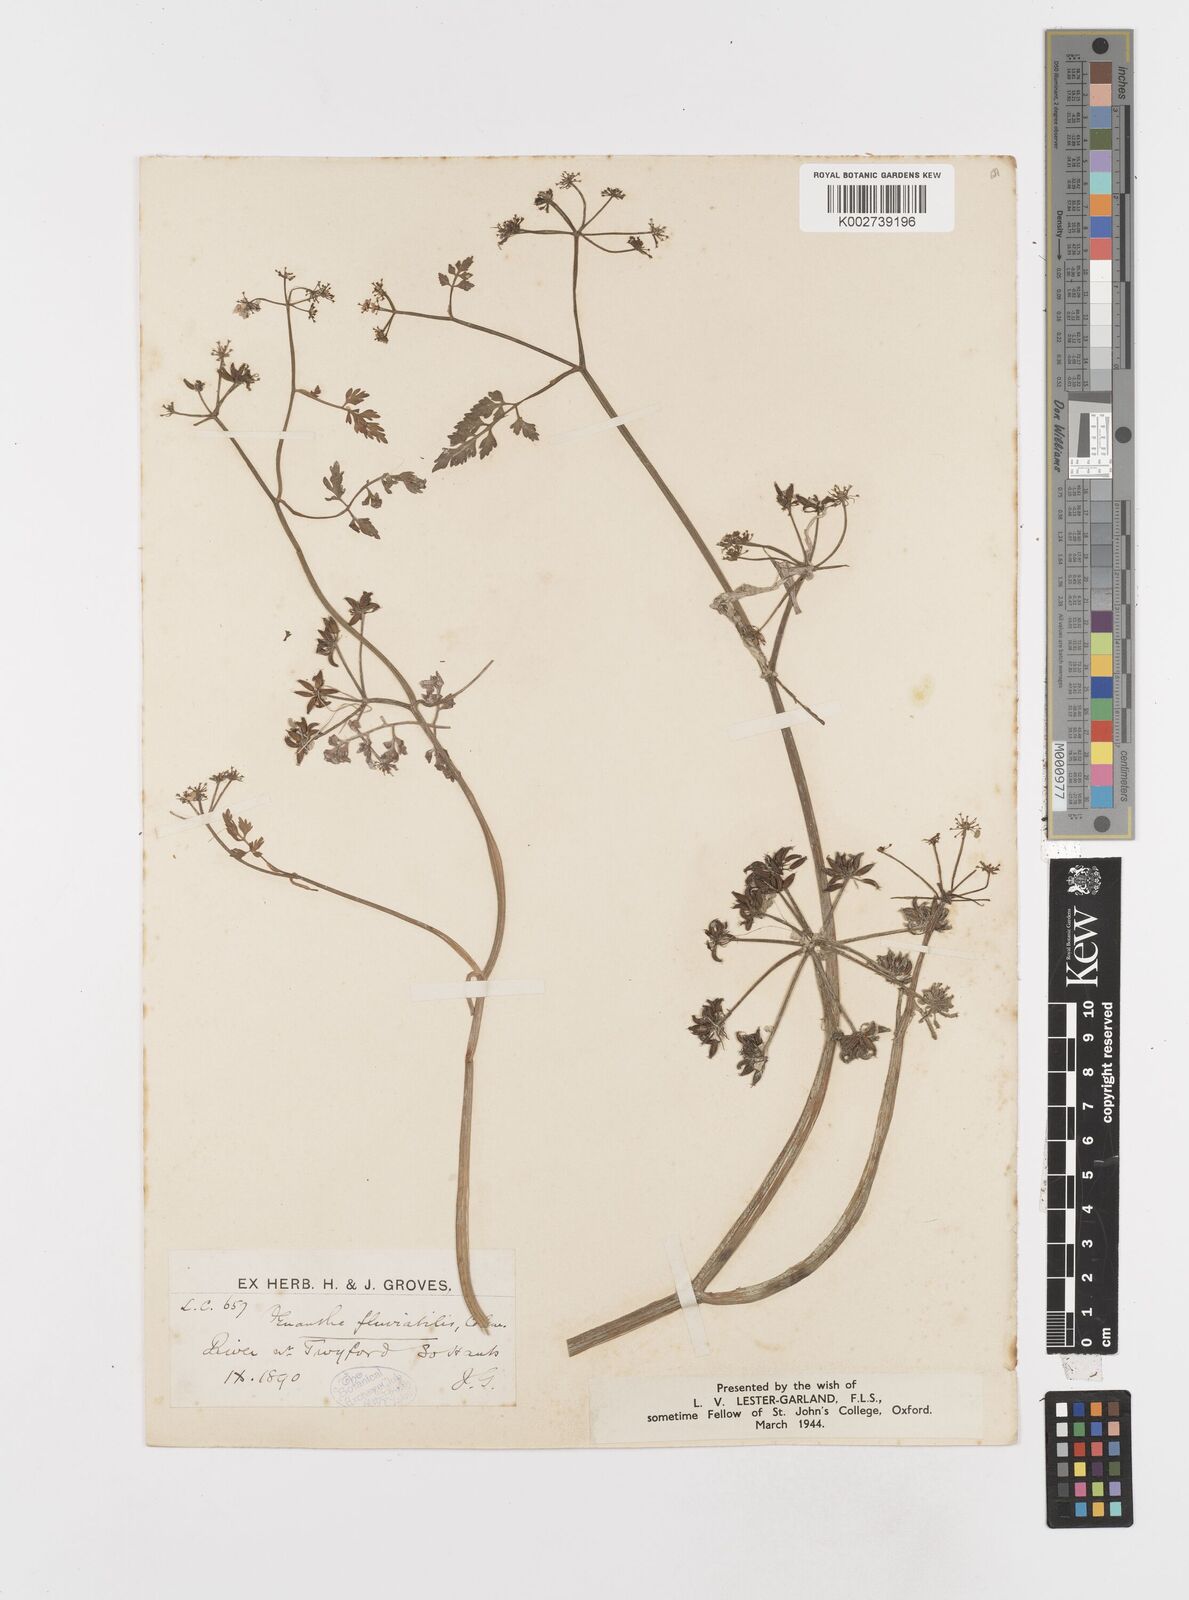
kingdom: Plantae
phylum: Tracheophyta
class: Magnoliopsida
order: Apiales
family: Apiaceae
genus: Oenanthe
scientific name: Oenanthe fluviatilis
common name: River water-dropwort
